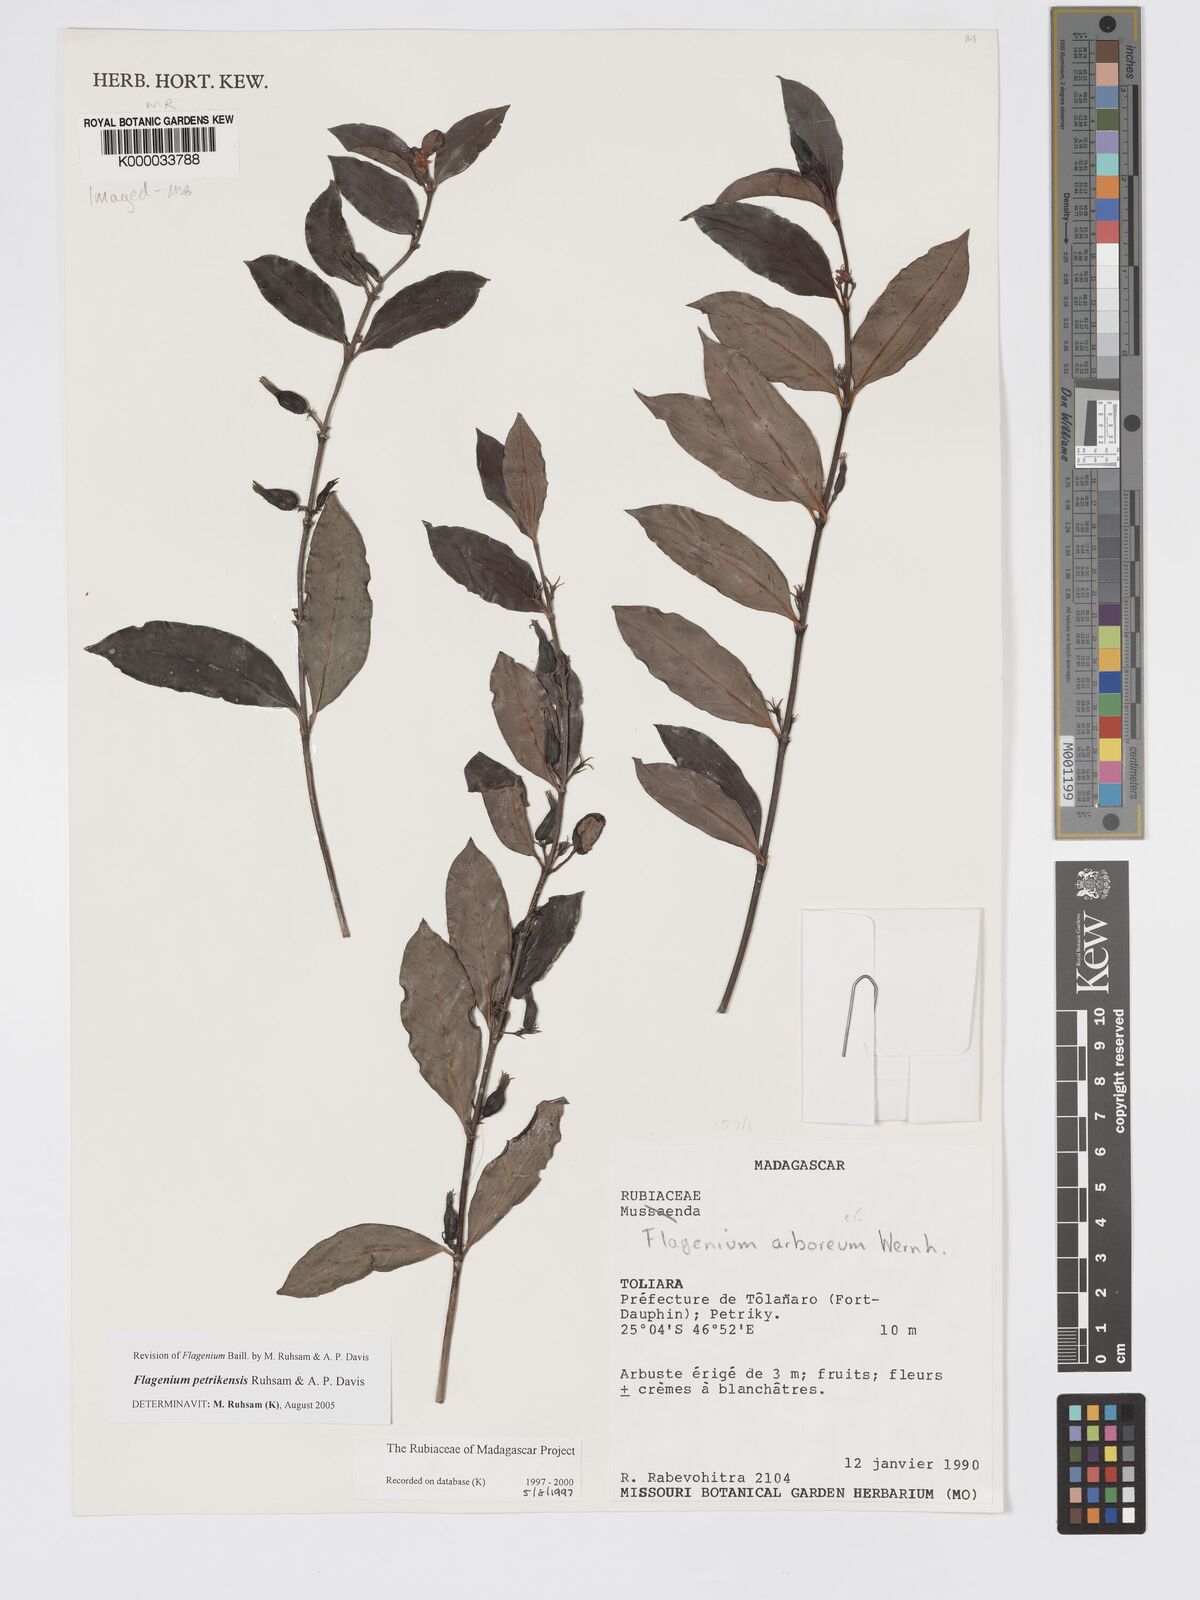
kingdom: Plantae
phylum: Tracheophyta
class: Magnoliopsida
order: Gentianales
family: Rubiaceae
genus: Flagenium
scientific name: Flagenium
